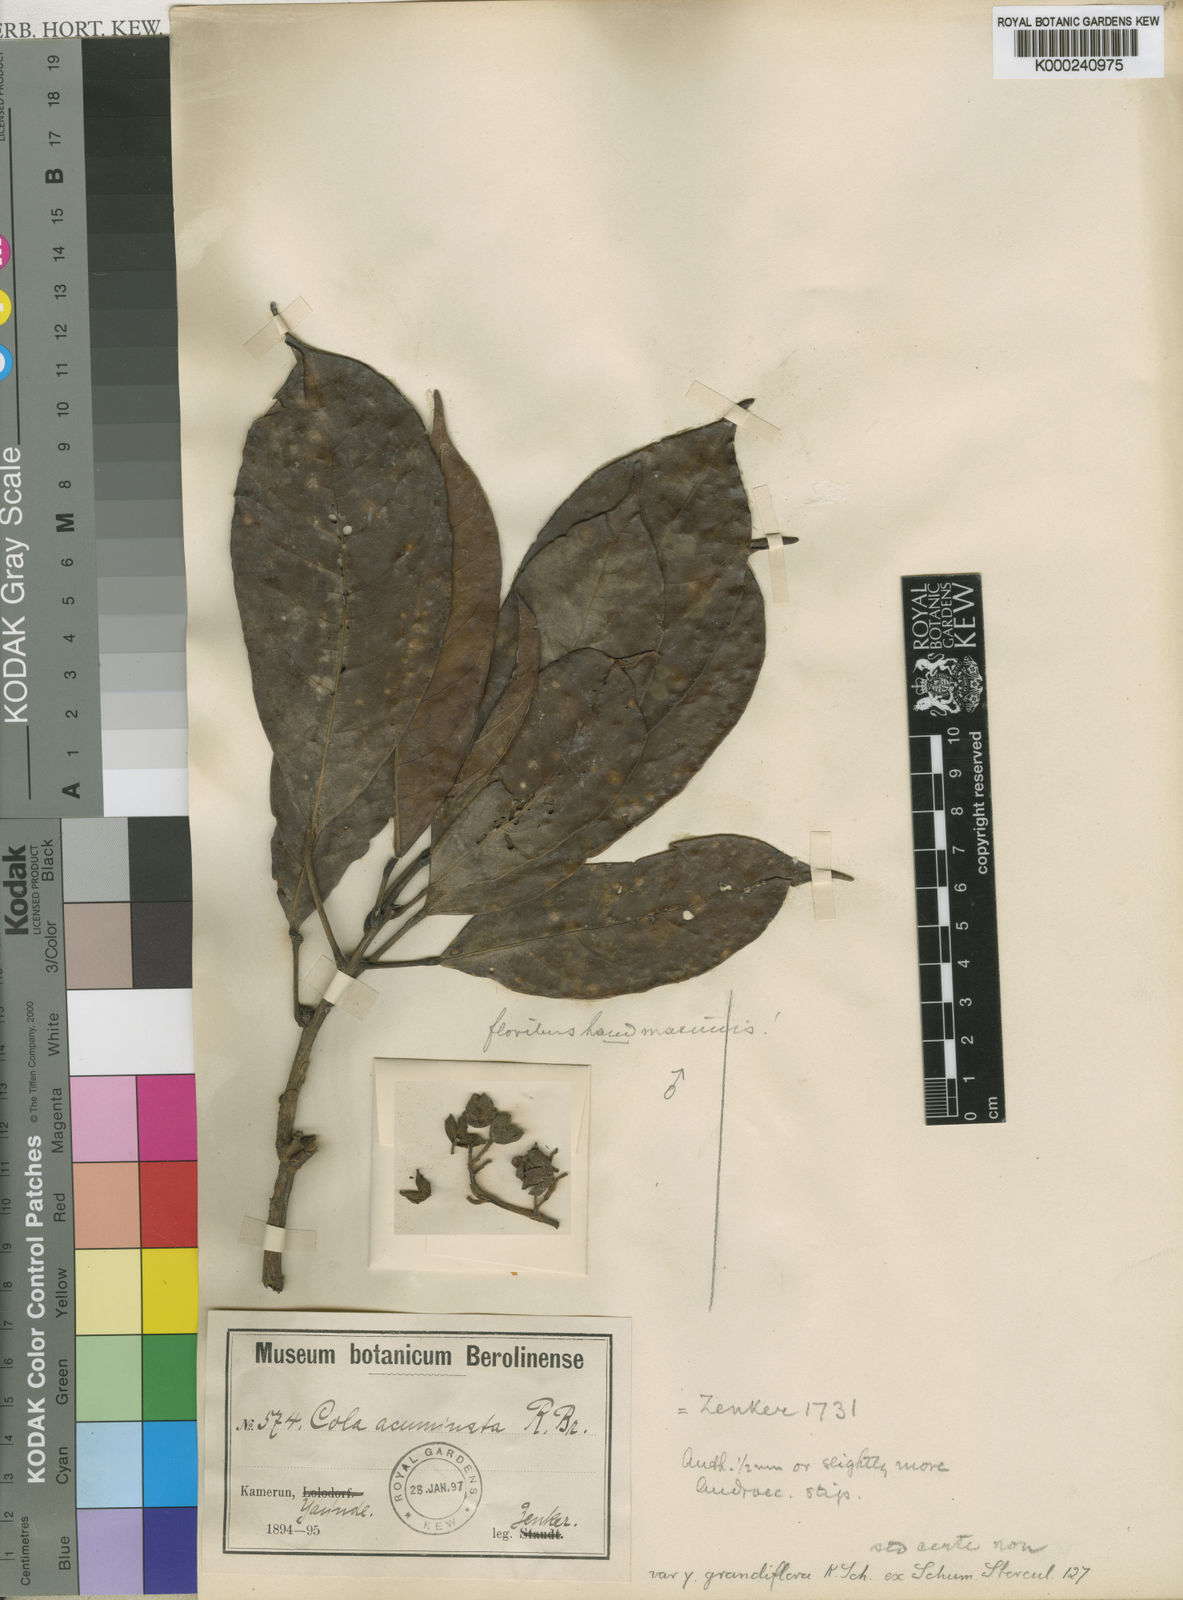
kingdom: Plantae
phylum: Tracheophyta
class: Magnoliopsida
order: Malvales
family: Malvaceae
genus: Cola
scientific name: Cola acuminata
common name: True kola
